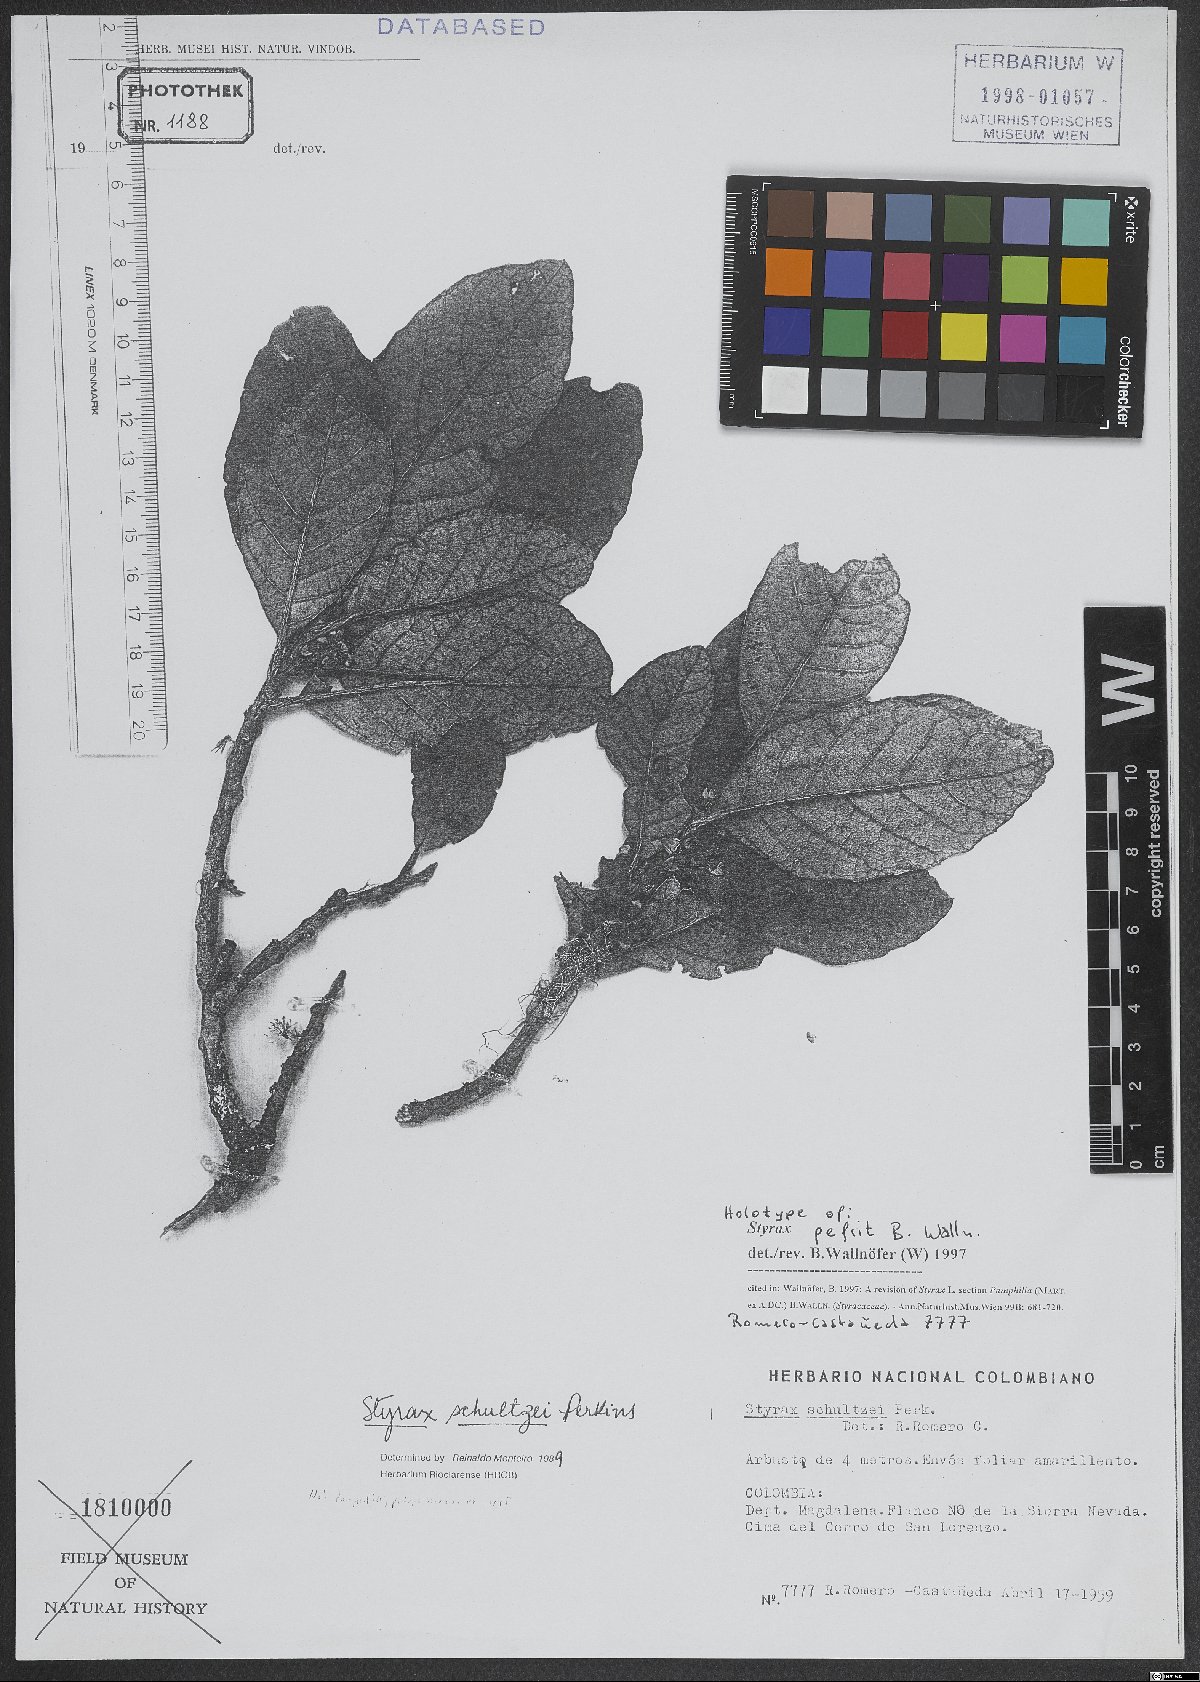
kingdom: Plantae
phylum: Tracheophyta
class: Magnoliopsida
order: Ericales
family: Styracaceae
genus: Styrax
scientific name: Styrax pefrit
